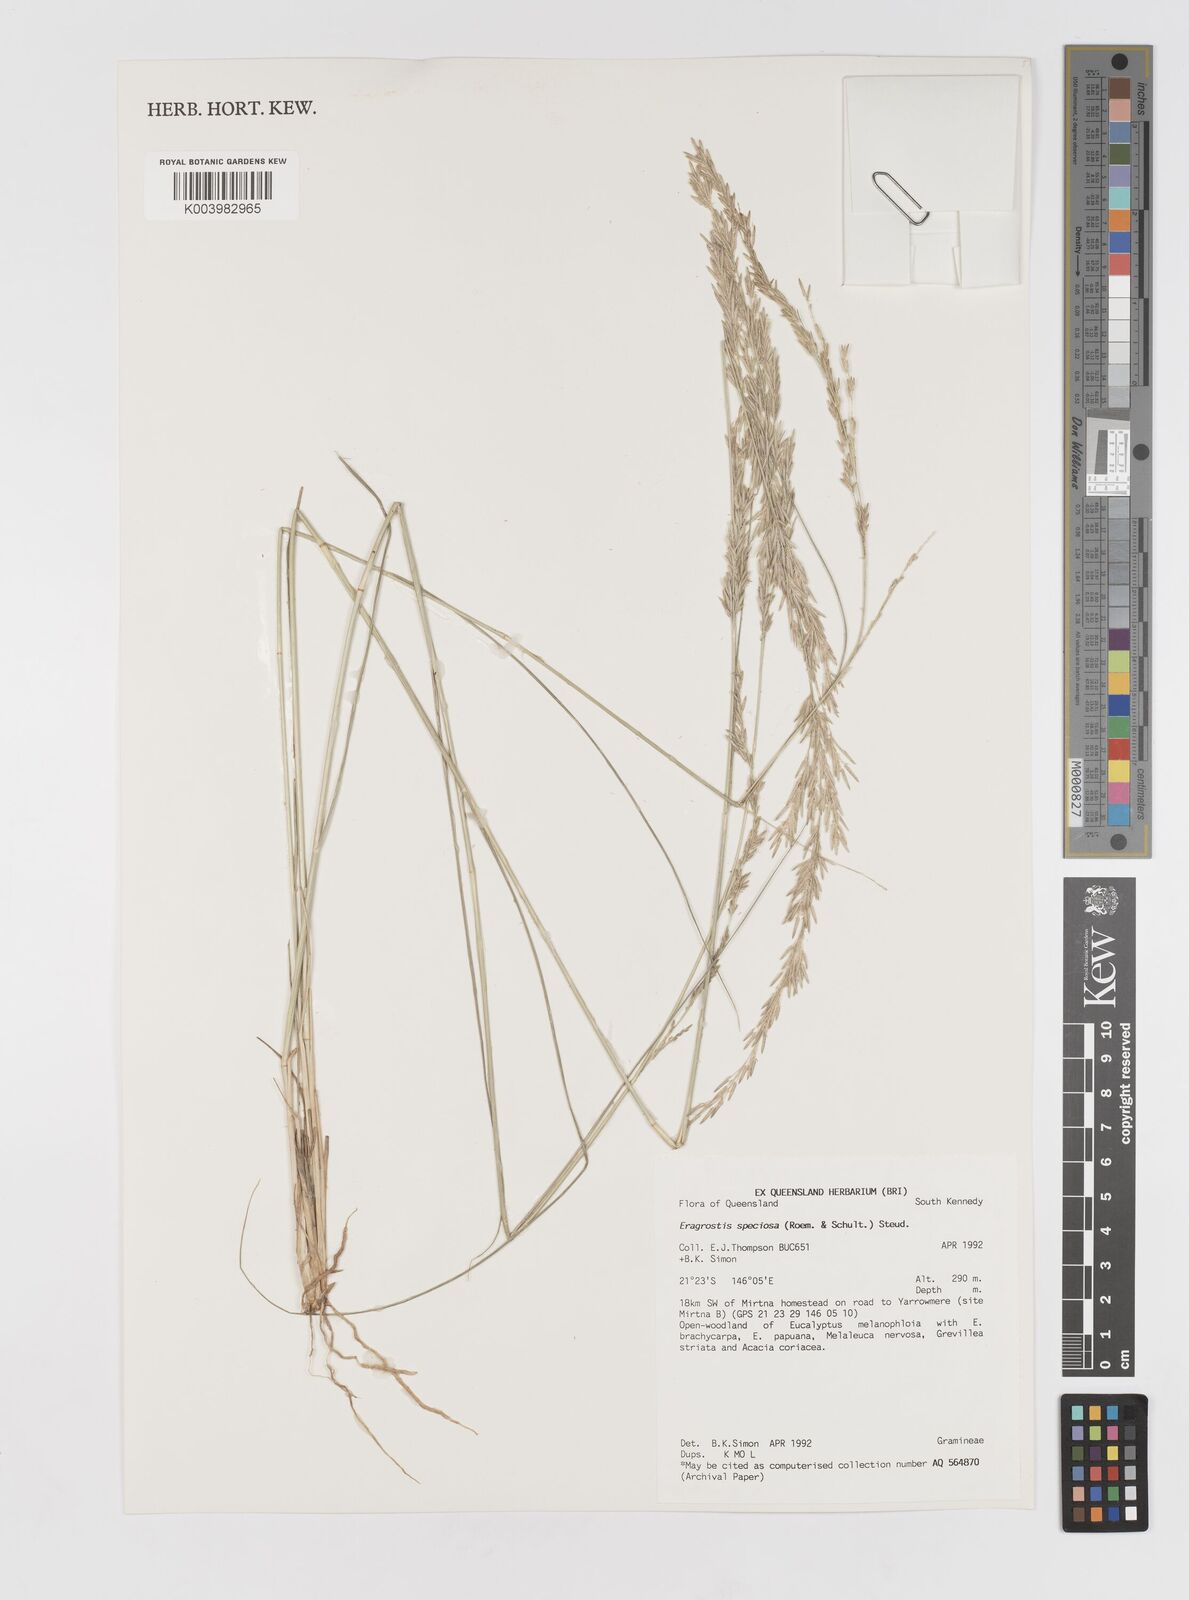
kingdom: Plantae
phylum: Tracheophyta
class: Liliopsida
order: Poales
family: Poaceae
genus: Eragrostis
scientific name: Eragrostis speciosa
